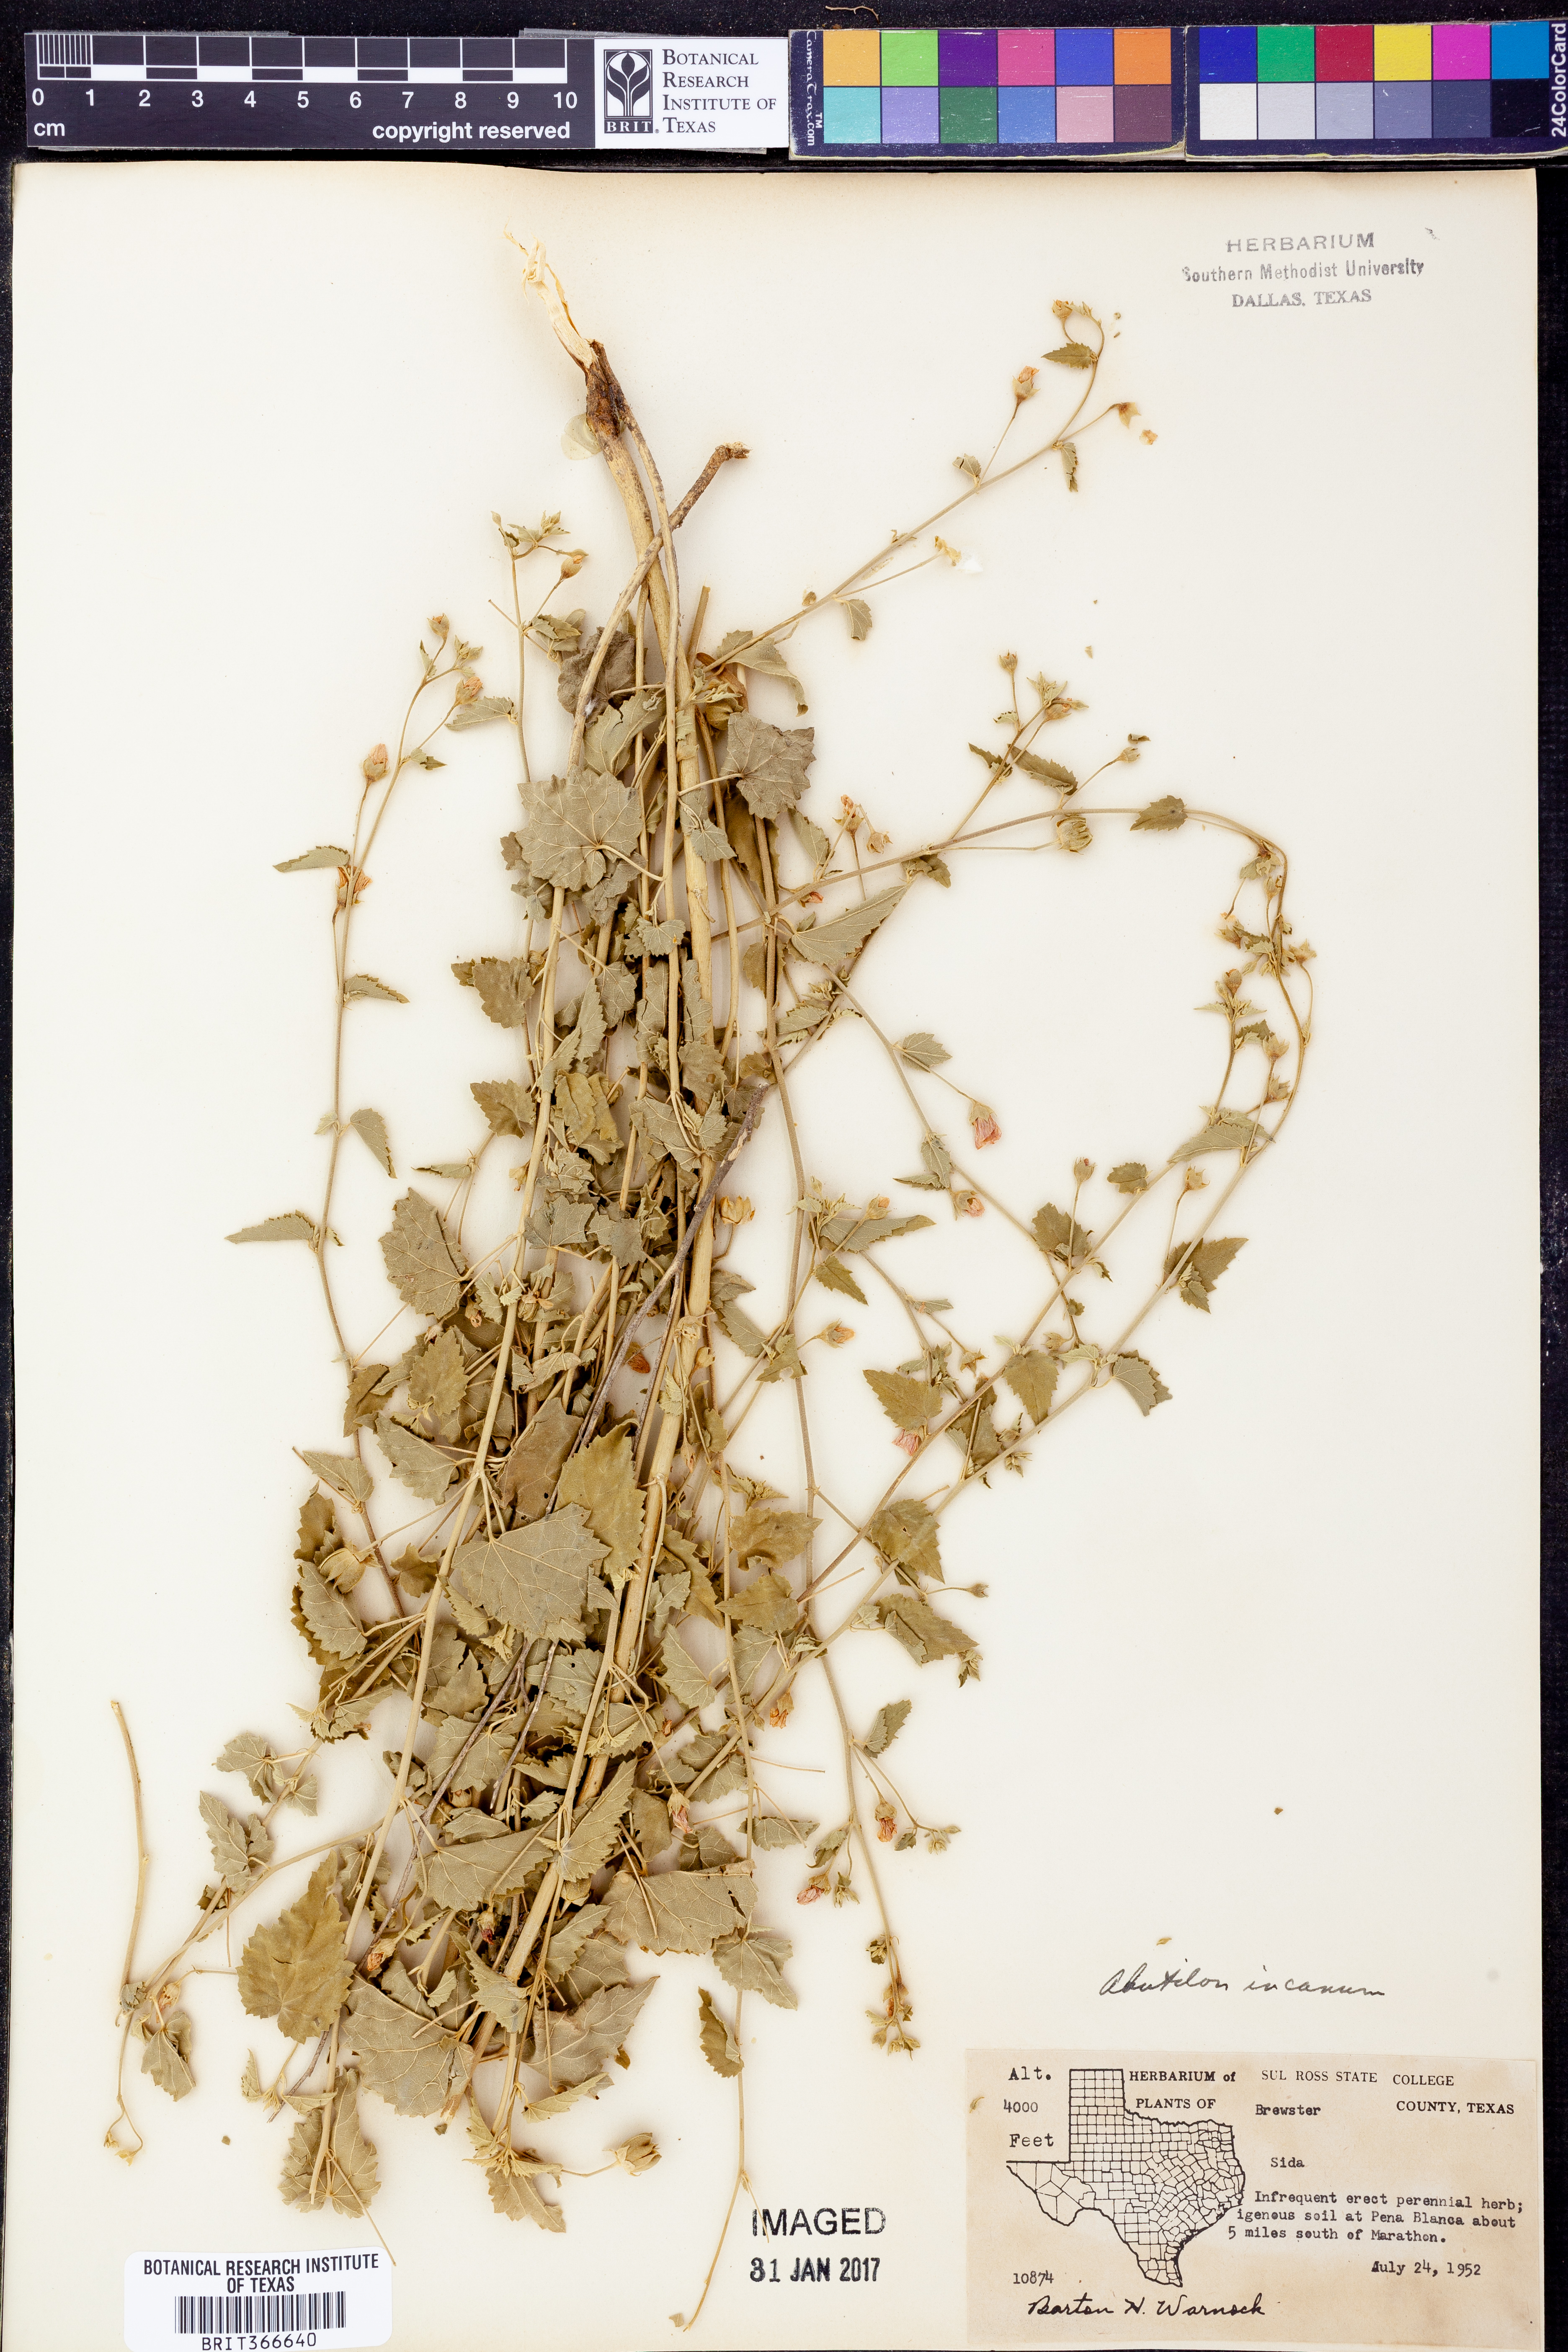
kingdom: Plantae
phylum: Tracheophyta
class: Magnoliopsida
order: Malvales
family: Malvaceae
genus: Abutilon
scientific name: Abutilon incanum
